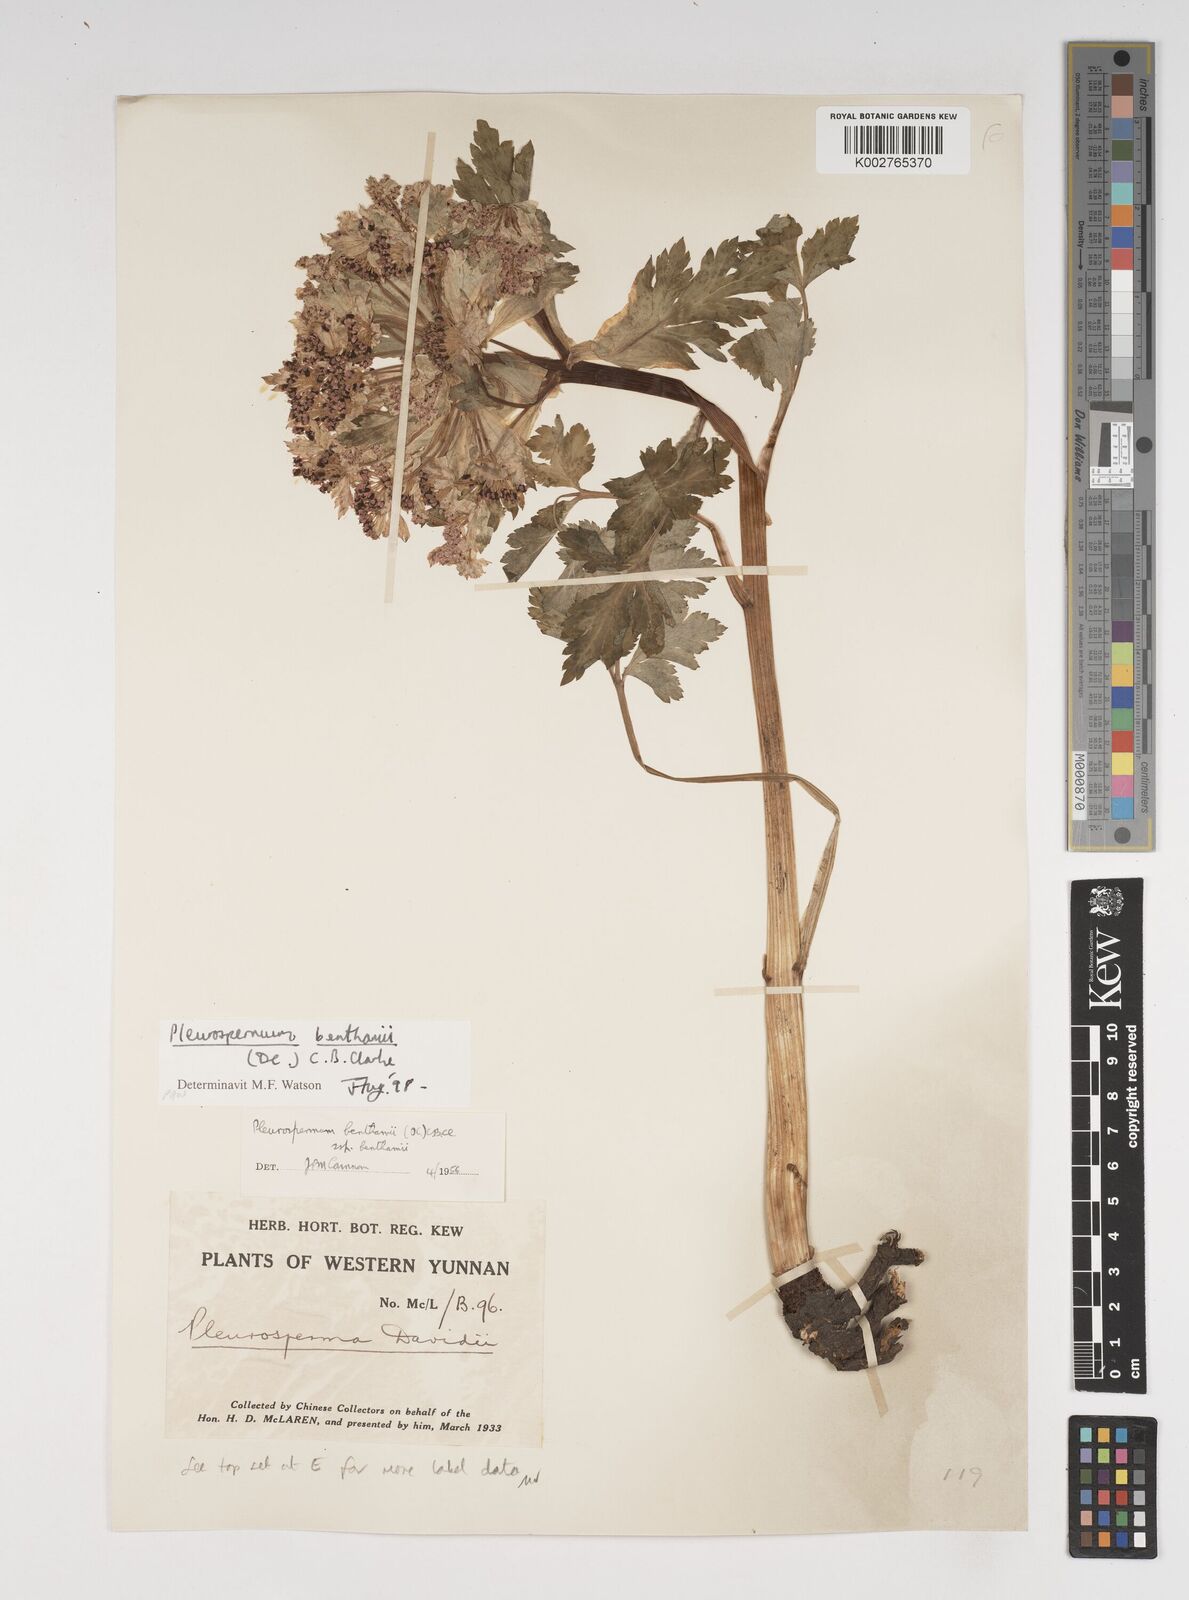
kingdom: Plantae
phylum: Tracheophyta
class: Magnoliopsida
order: Apiales
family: Apiaceae
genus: Hymenidium
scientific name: Hymenidium benthamii
